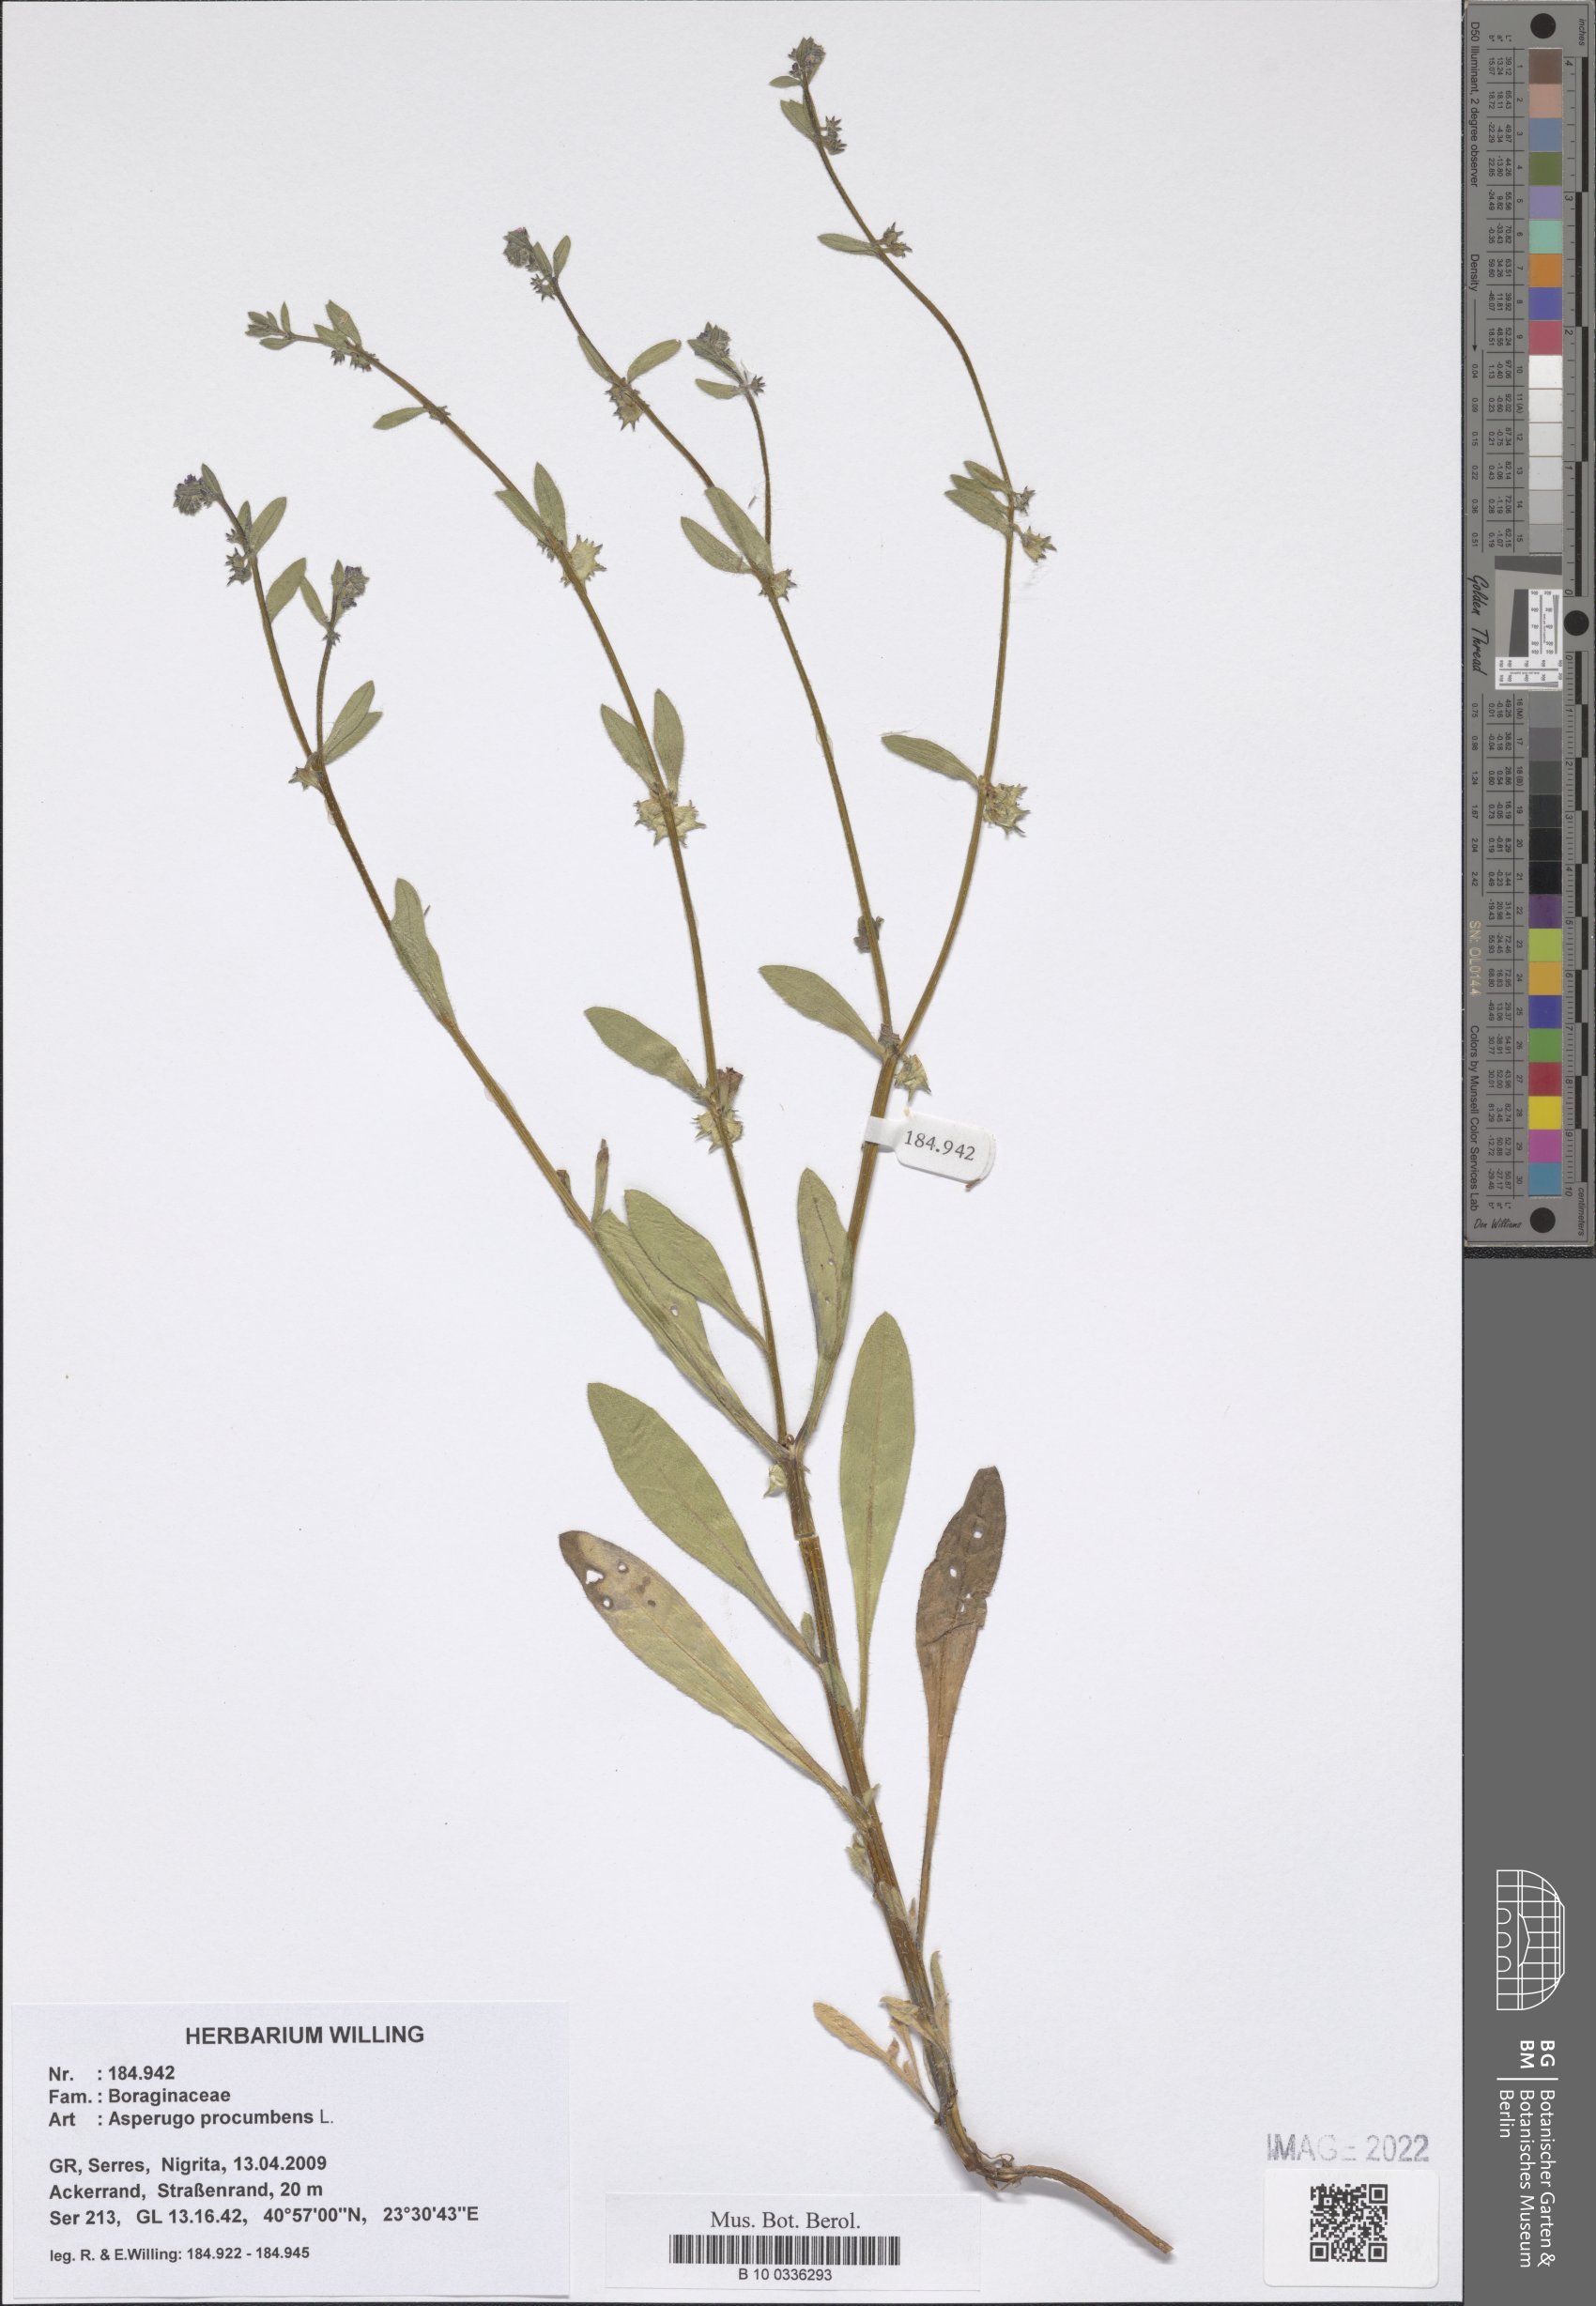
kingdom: Plantae
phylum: Tracheophyta
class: Magnoliopsida
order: Boraginales
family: Boraginaceae
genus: Asperugo
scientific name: Asperugo procumbens
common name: Madwort
